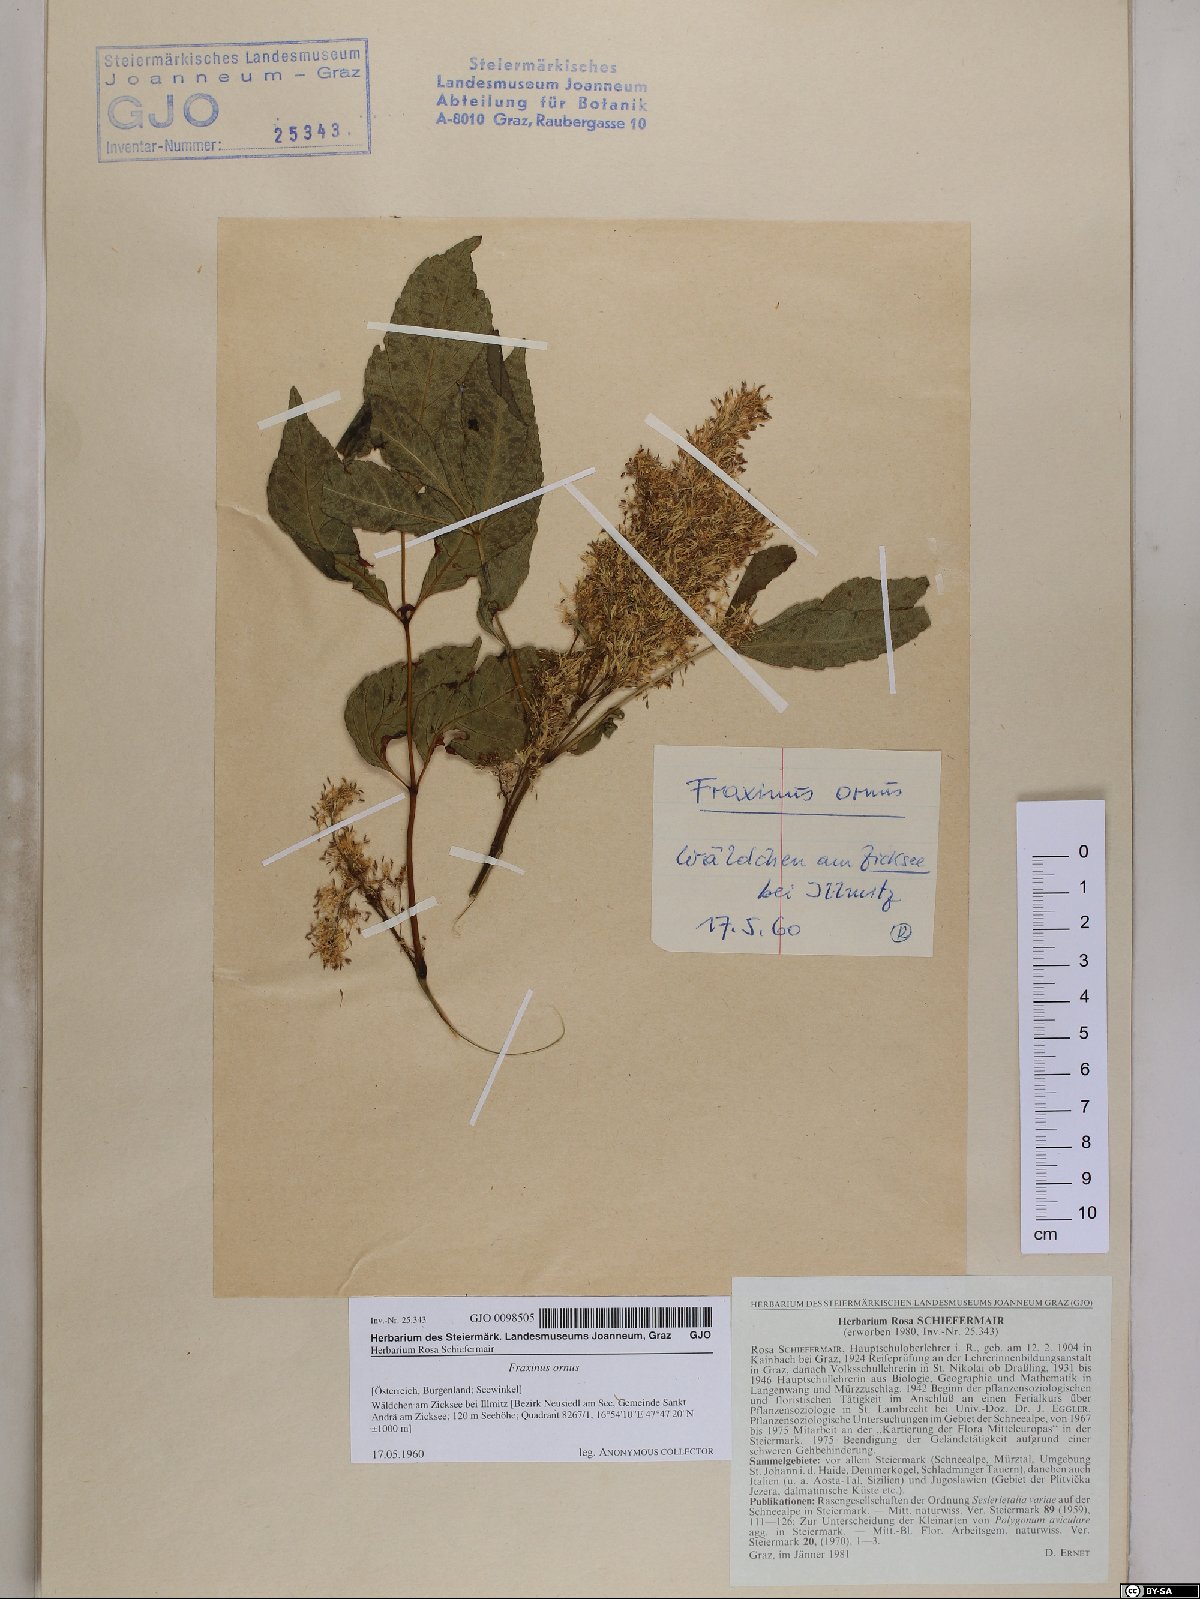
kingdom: Plantae
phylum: Tracheophyta
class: Magnoliopsida
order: Lamiales
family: Oleaceae
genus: Fraxinus
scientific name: Fraxinus ornus
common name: Manna ash
